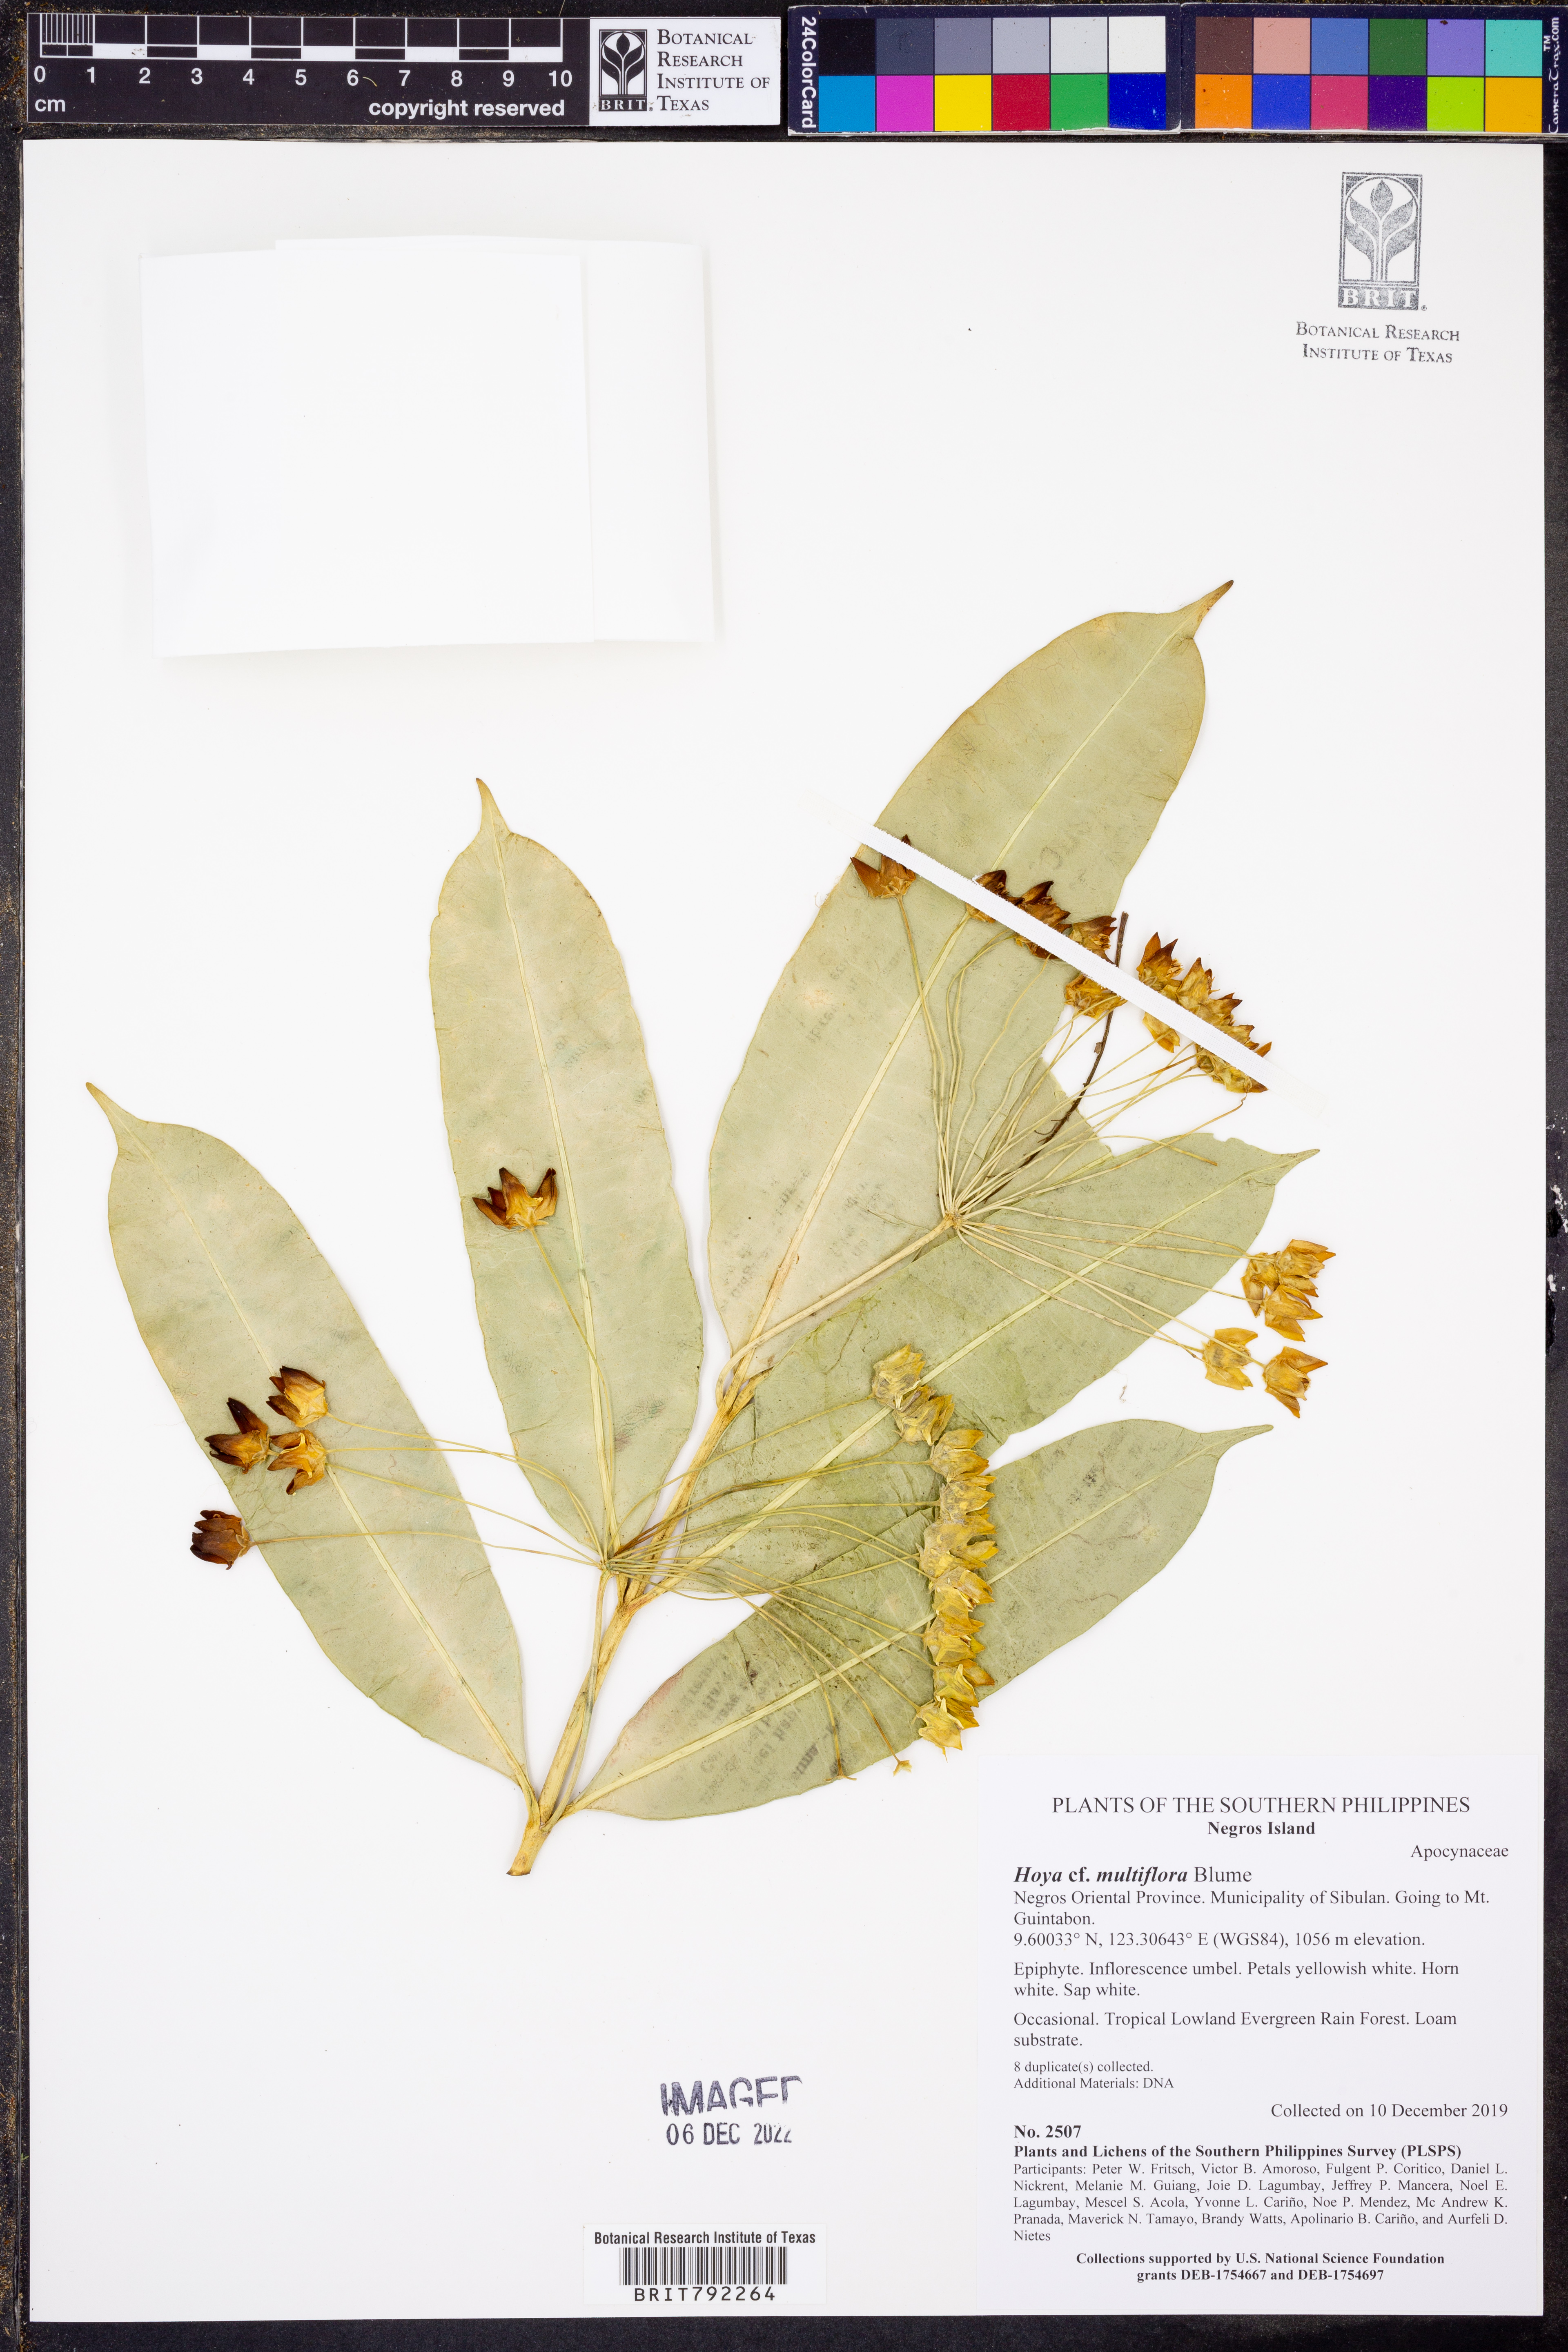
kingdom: Plantae
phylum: Tracheophyta
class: Magnoliopsida
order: Gentianales
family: Apocynaceae
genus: Hoya
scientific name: Hoya multiflora
